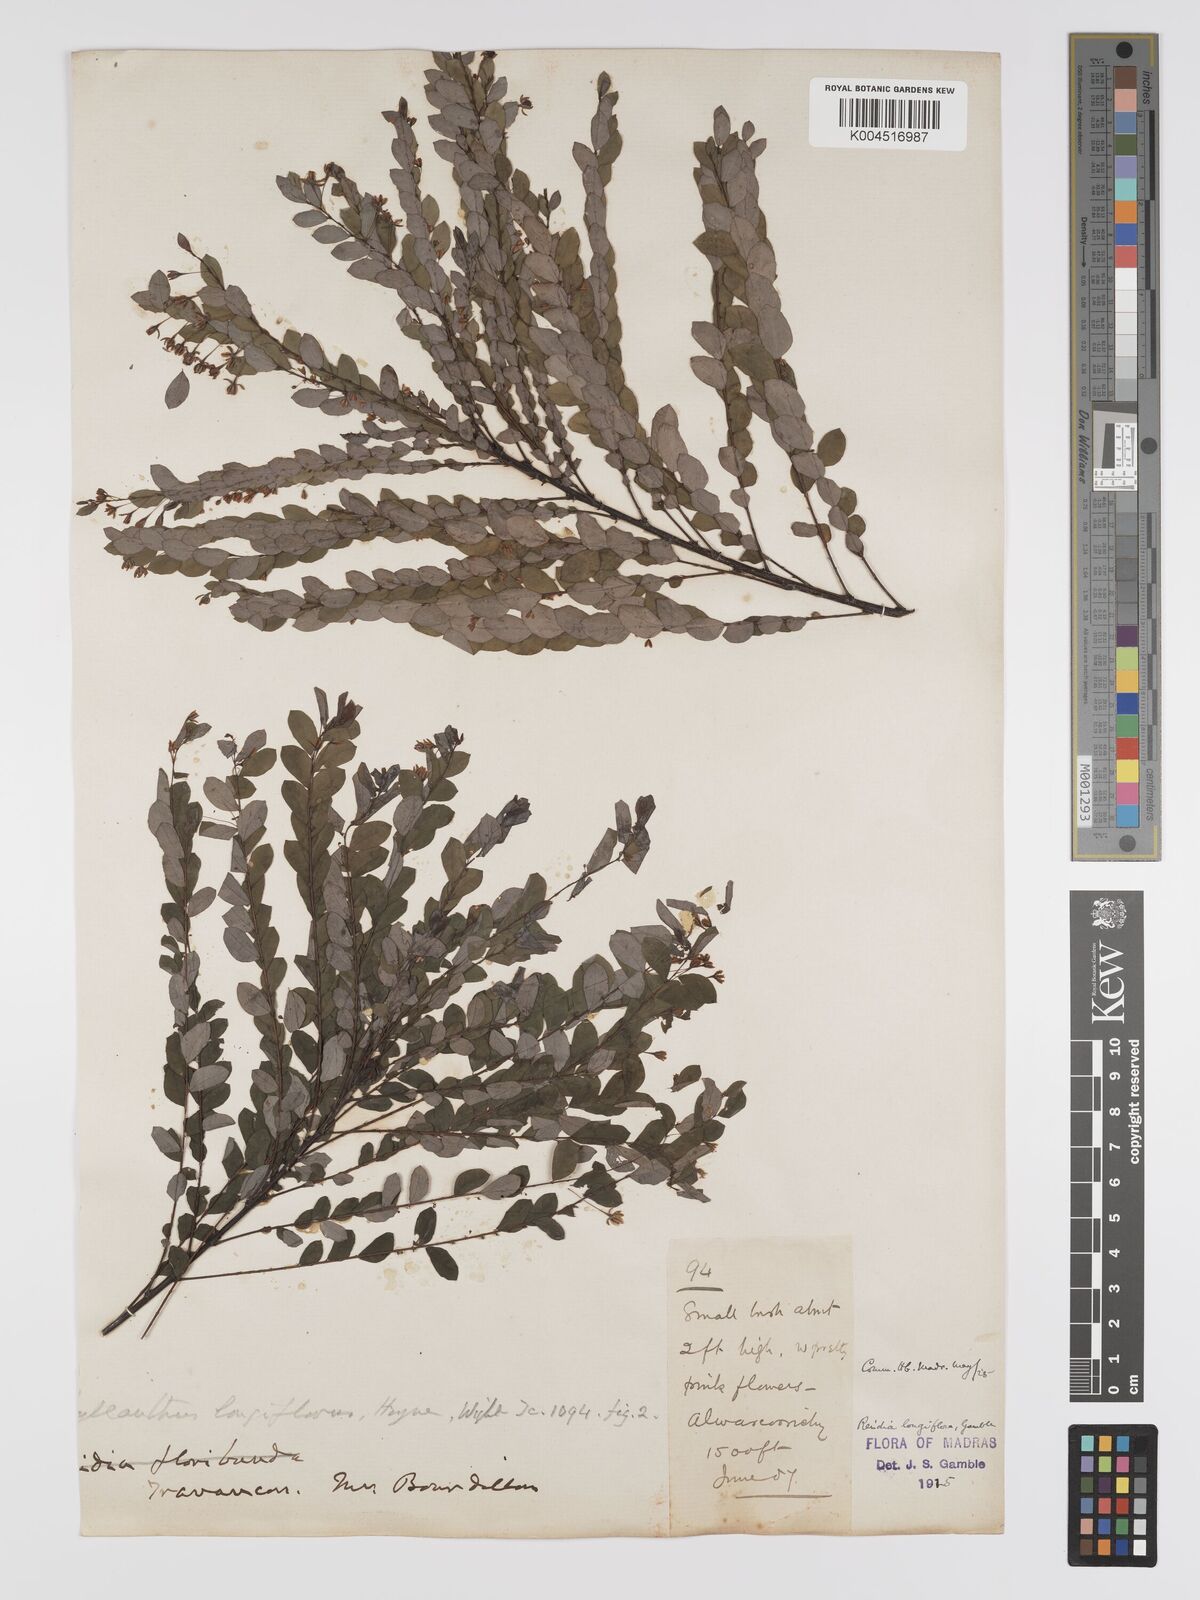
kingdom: Plantae
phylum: Tracheophyta
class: Magnoliopsida
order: Malpighiales
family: Phyllanthaceae
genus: Phyllanthus
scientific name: Phyllanthus heyneanus
